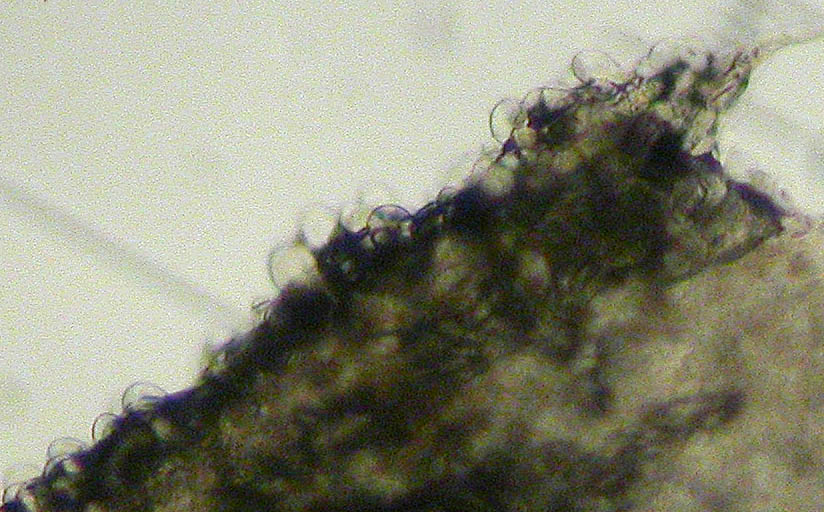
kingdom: Fungi
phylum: Basidiomycota
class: Agaricomycetes
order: Agaricales
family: Agaricaceae
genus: Agaricus
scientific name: Agaricus langei
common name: stor blod-champignon
